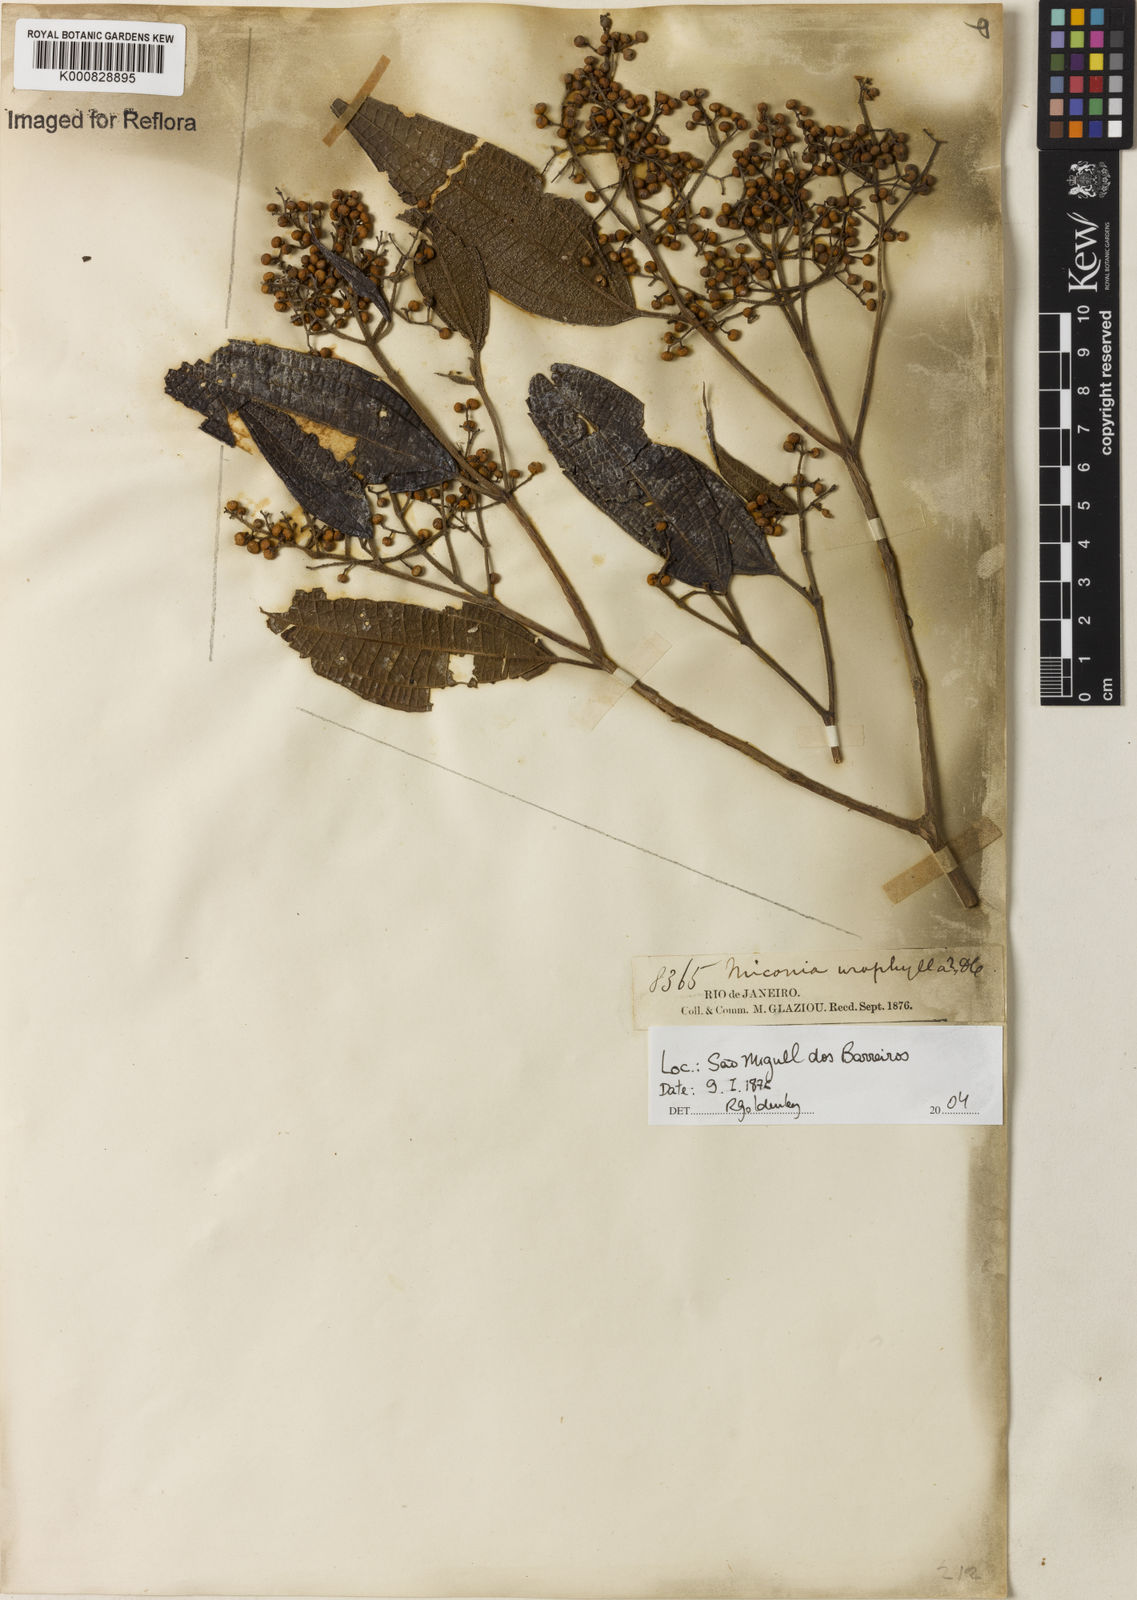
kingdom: Plantae
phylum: Tracheophyta
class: Magnoliopsida
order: Myrtales
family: Melastomataceae
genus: Miconia
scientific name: Miconia urophylla
